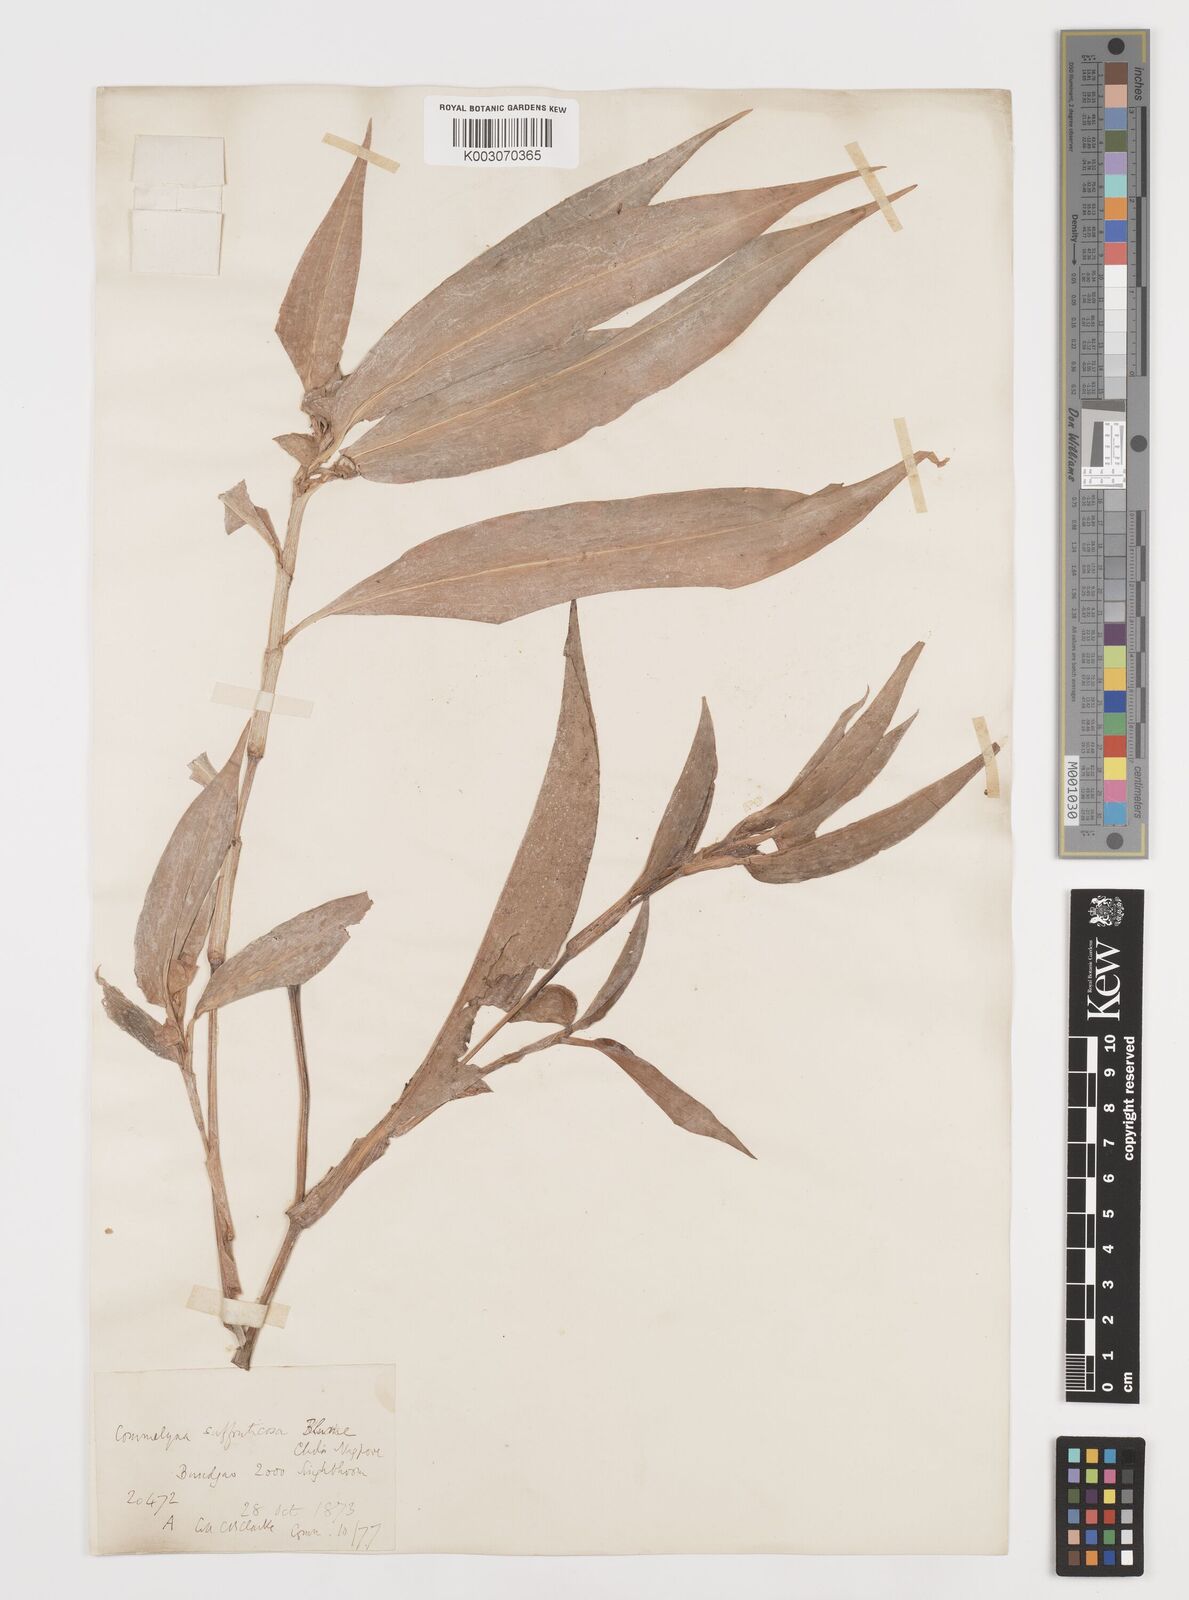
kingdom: Plantae
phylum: Tracheophyta
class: Liliopsida
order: Commelinales
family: Commelinaceae
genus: Commelina
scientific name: Commelina suffruticosa
